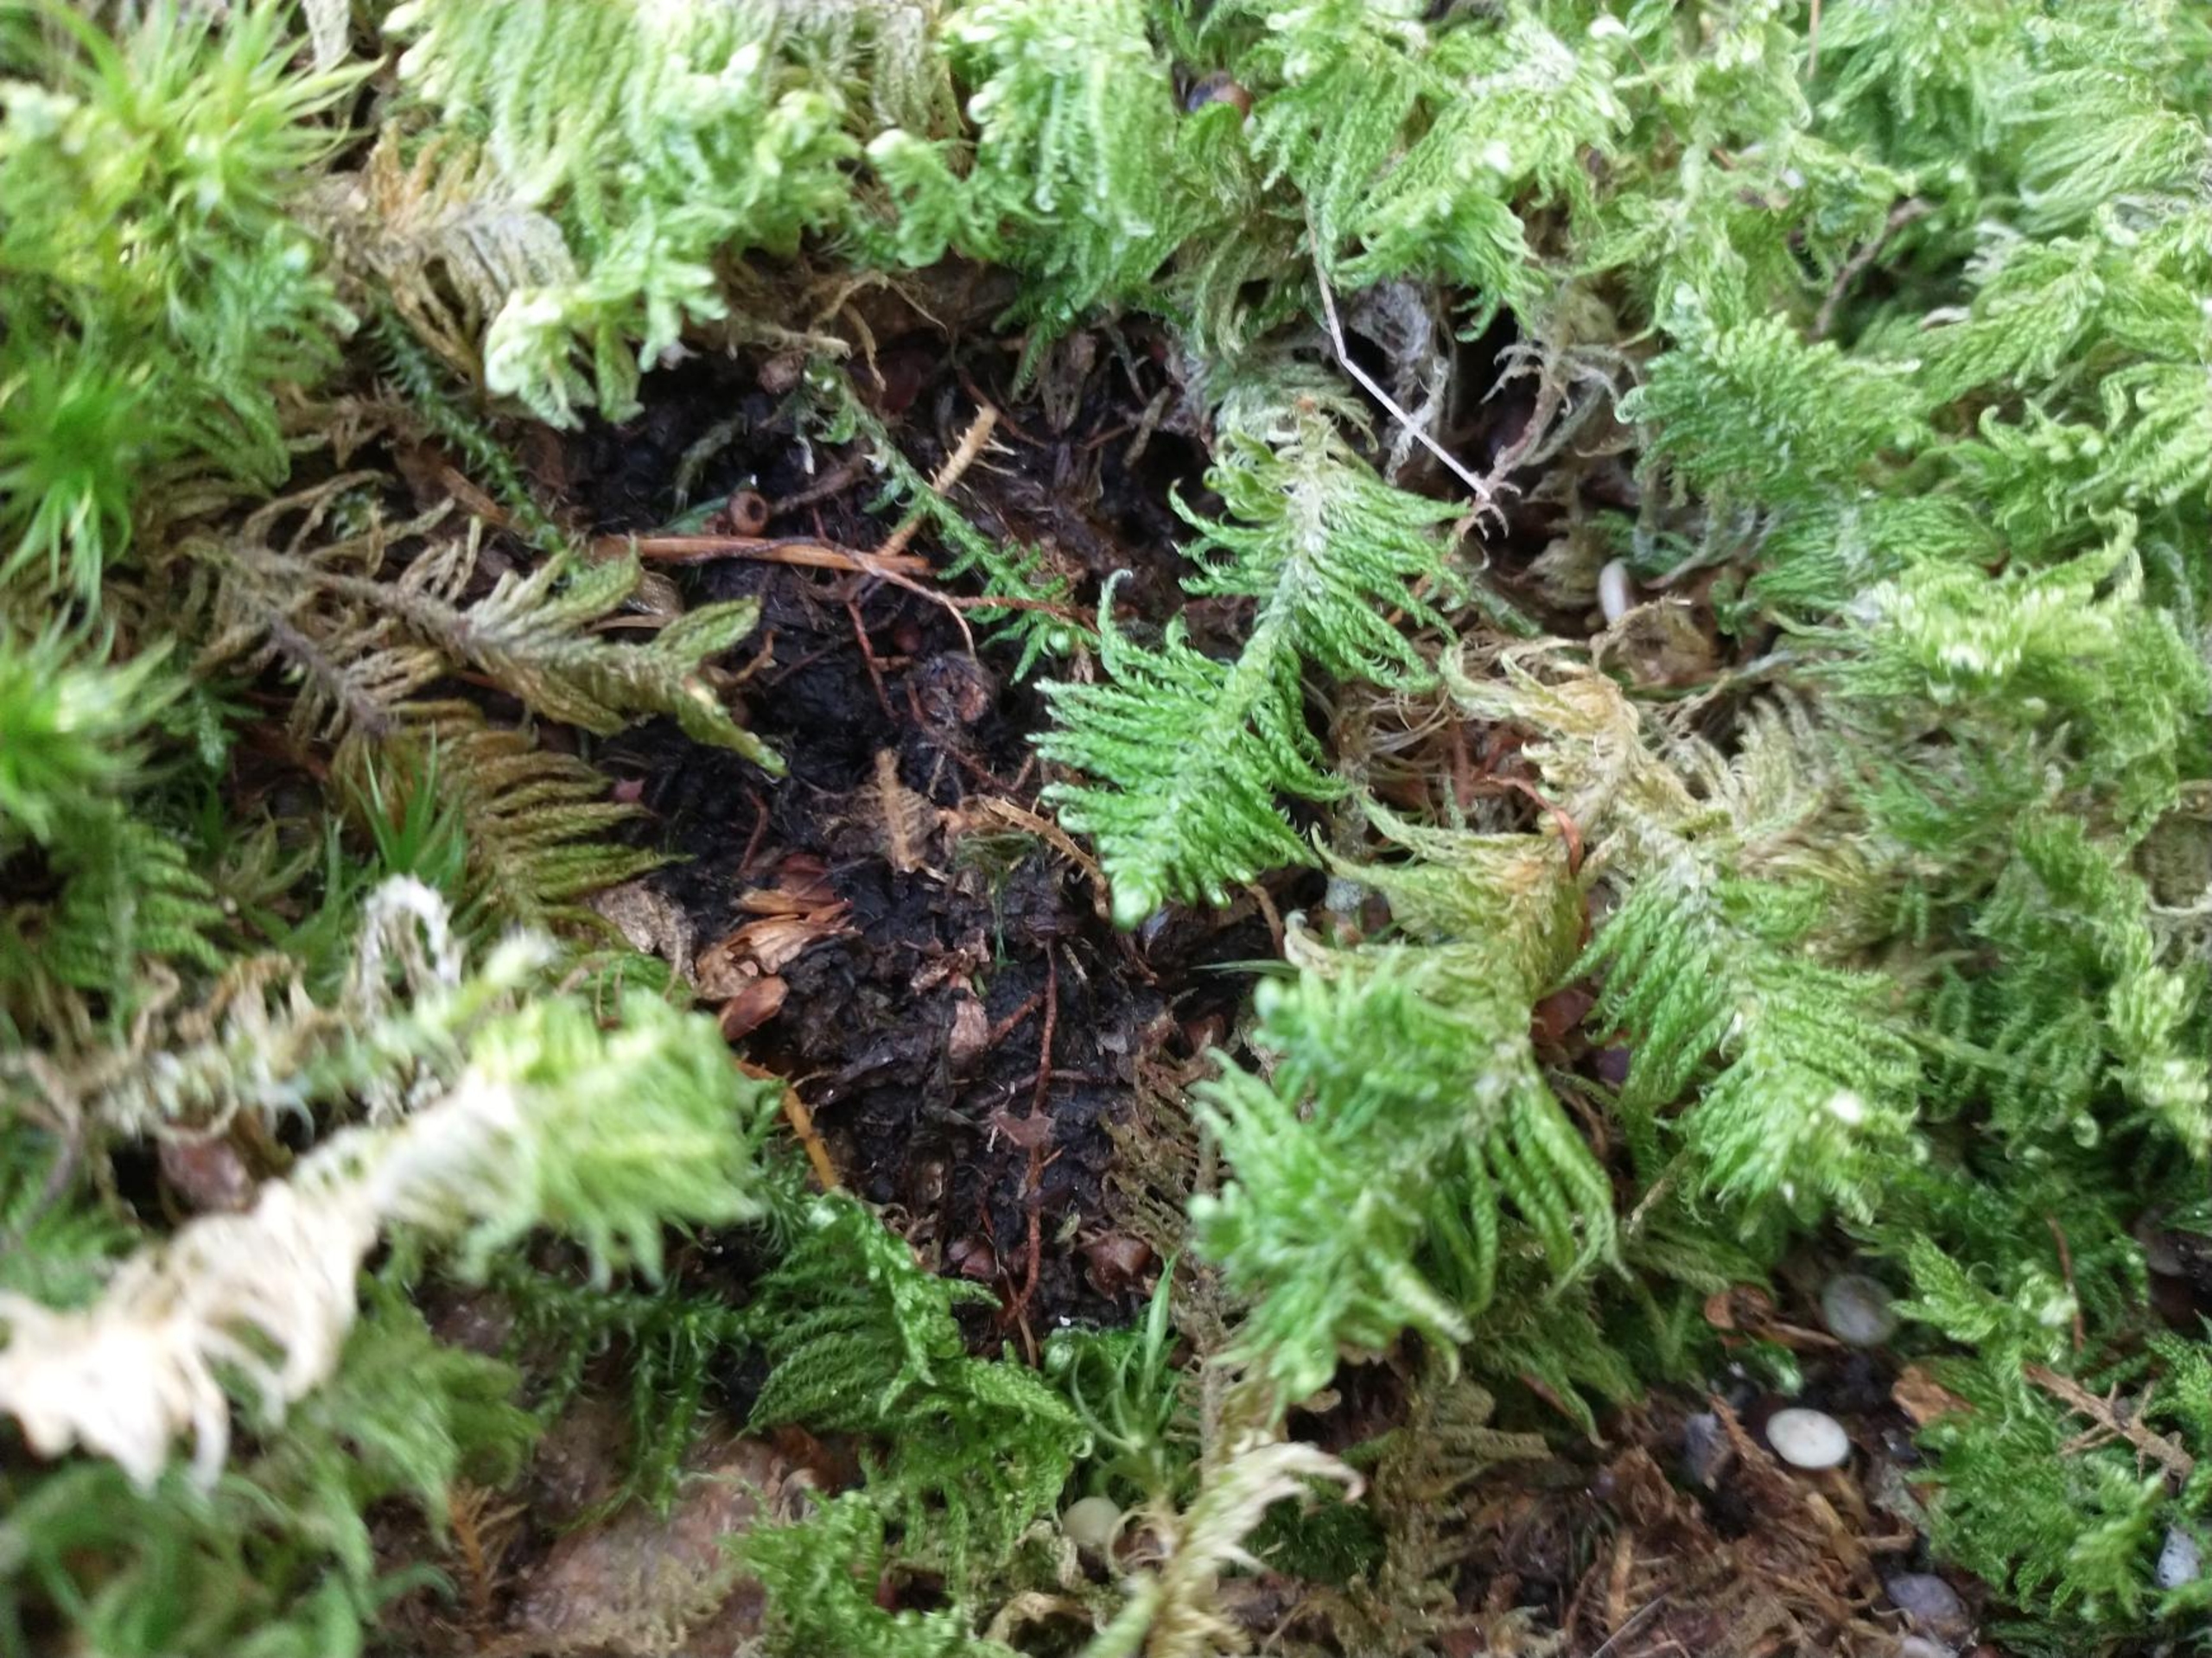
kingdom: Plantae
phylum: Bryophyta
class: Bryopsida
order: Hypnales
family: Pylaisiaceae
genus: Ptilium
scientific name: Ptilium crista-castrensis
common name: Fjer-kammos
